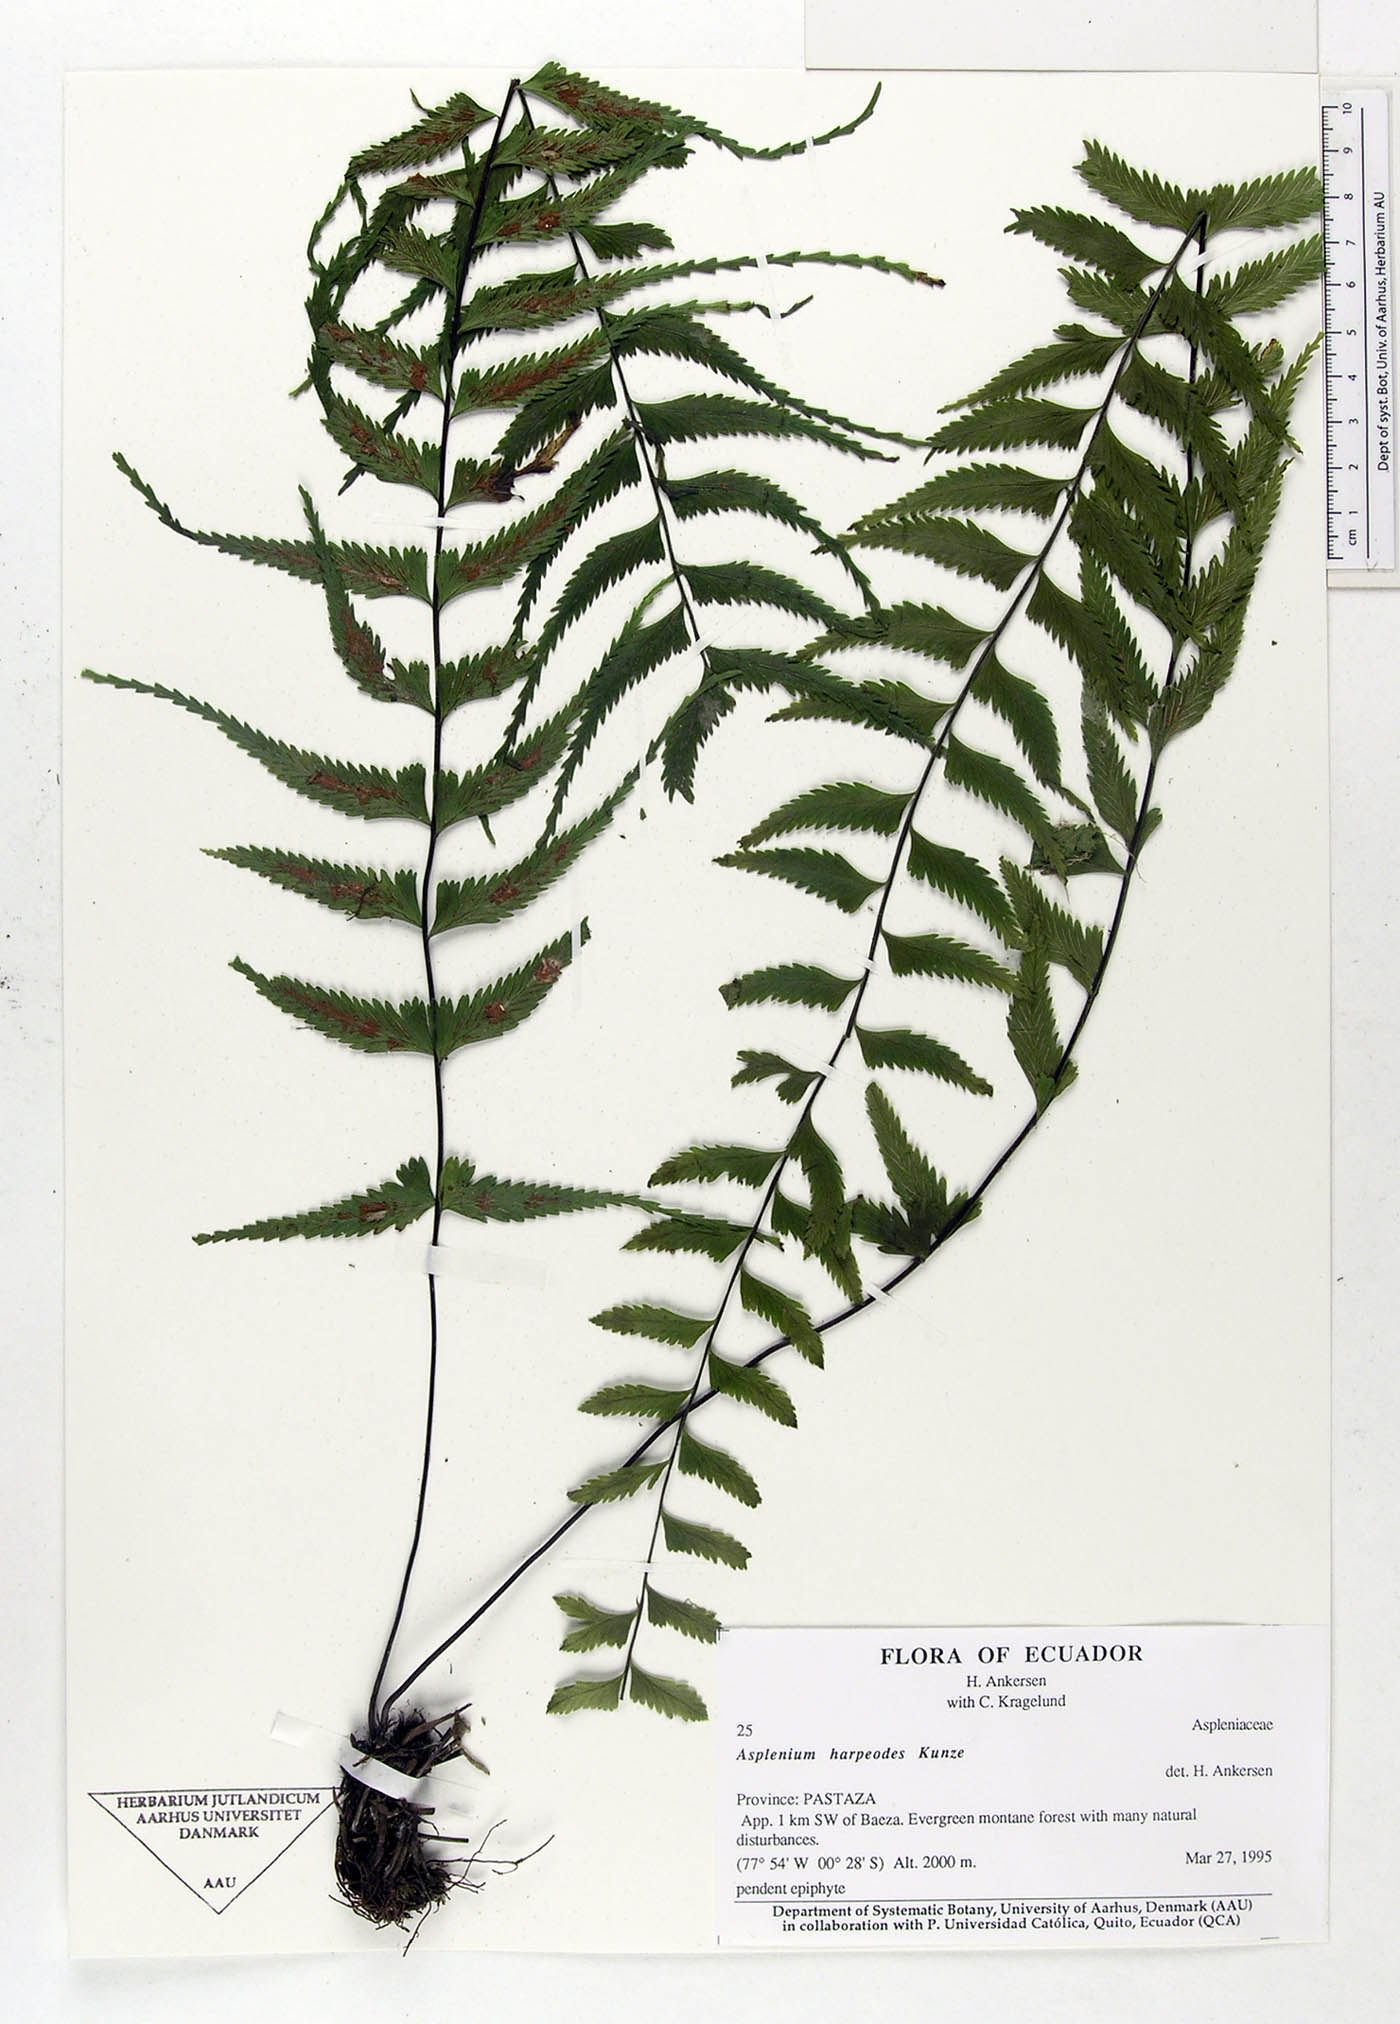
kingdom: Plantae
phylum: Tracheophyta
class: Polypodiopsida
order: Polypodiales
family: Aspleniaceae
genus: Asplenium
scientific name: Asplenium harpeodes
